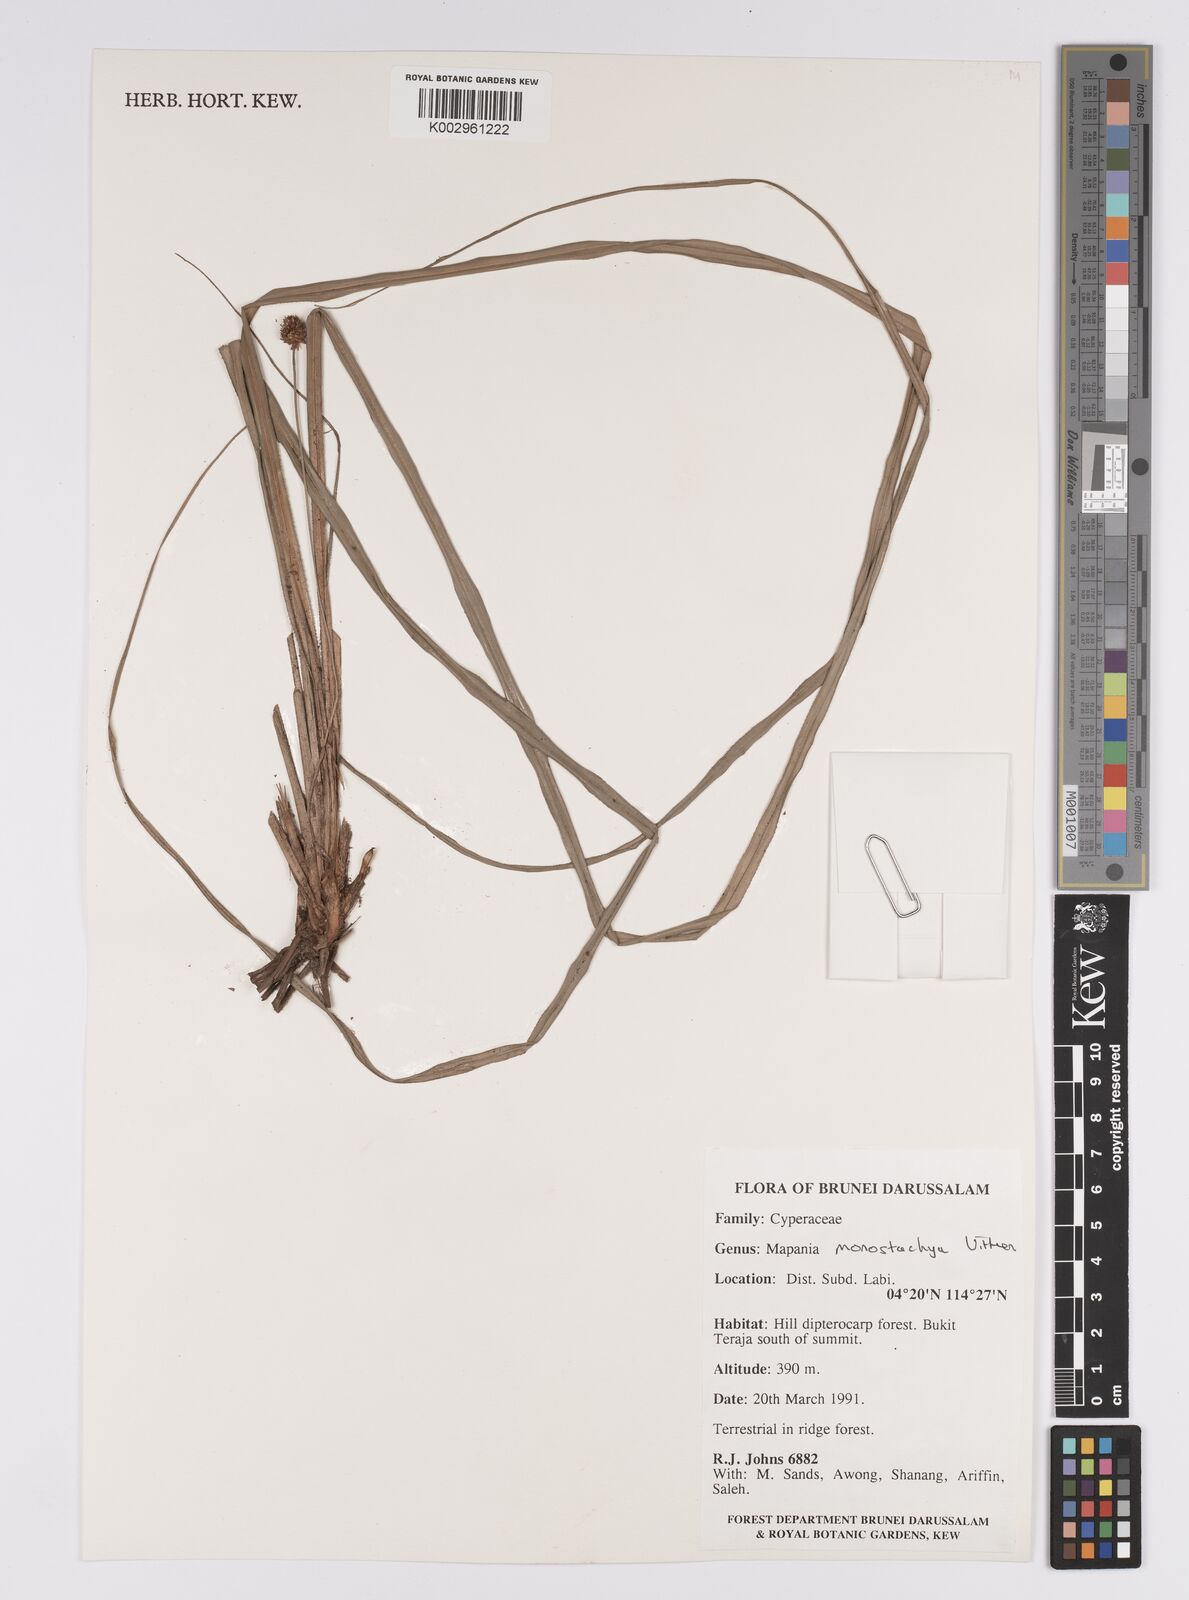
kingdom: Plantae
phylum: Tracheophyta
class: Liliopsida
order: Poales
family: Cyperaceae
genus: Mapania
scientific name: Mapania monostachya
